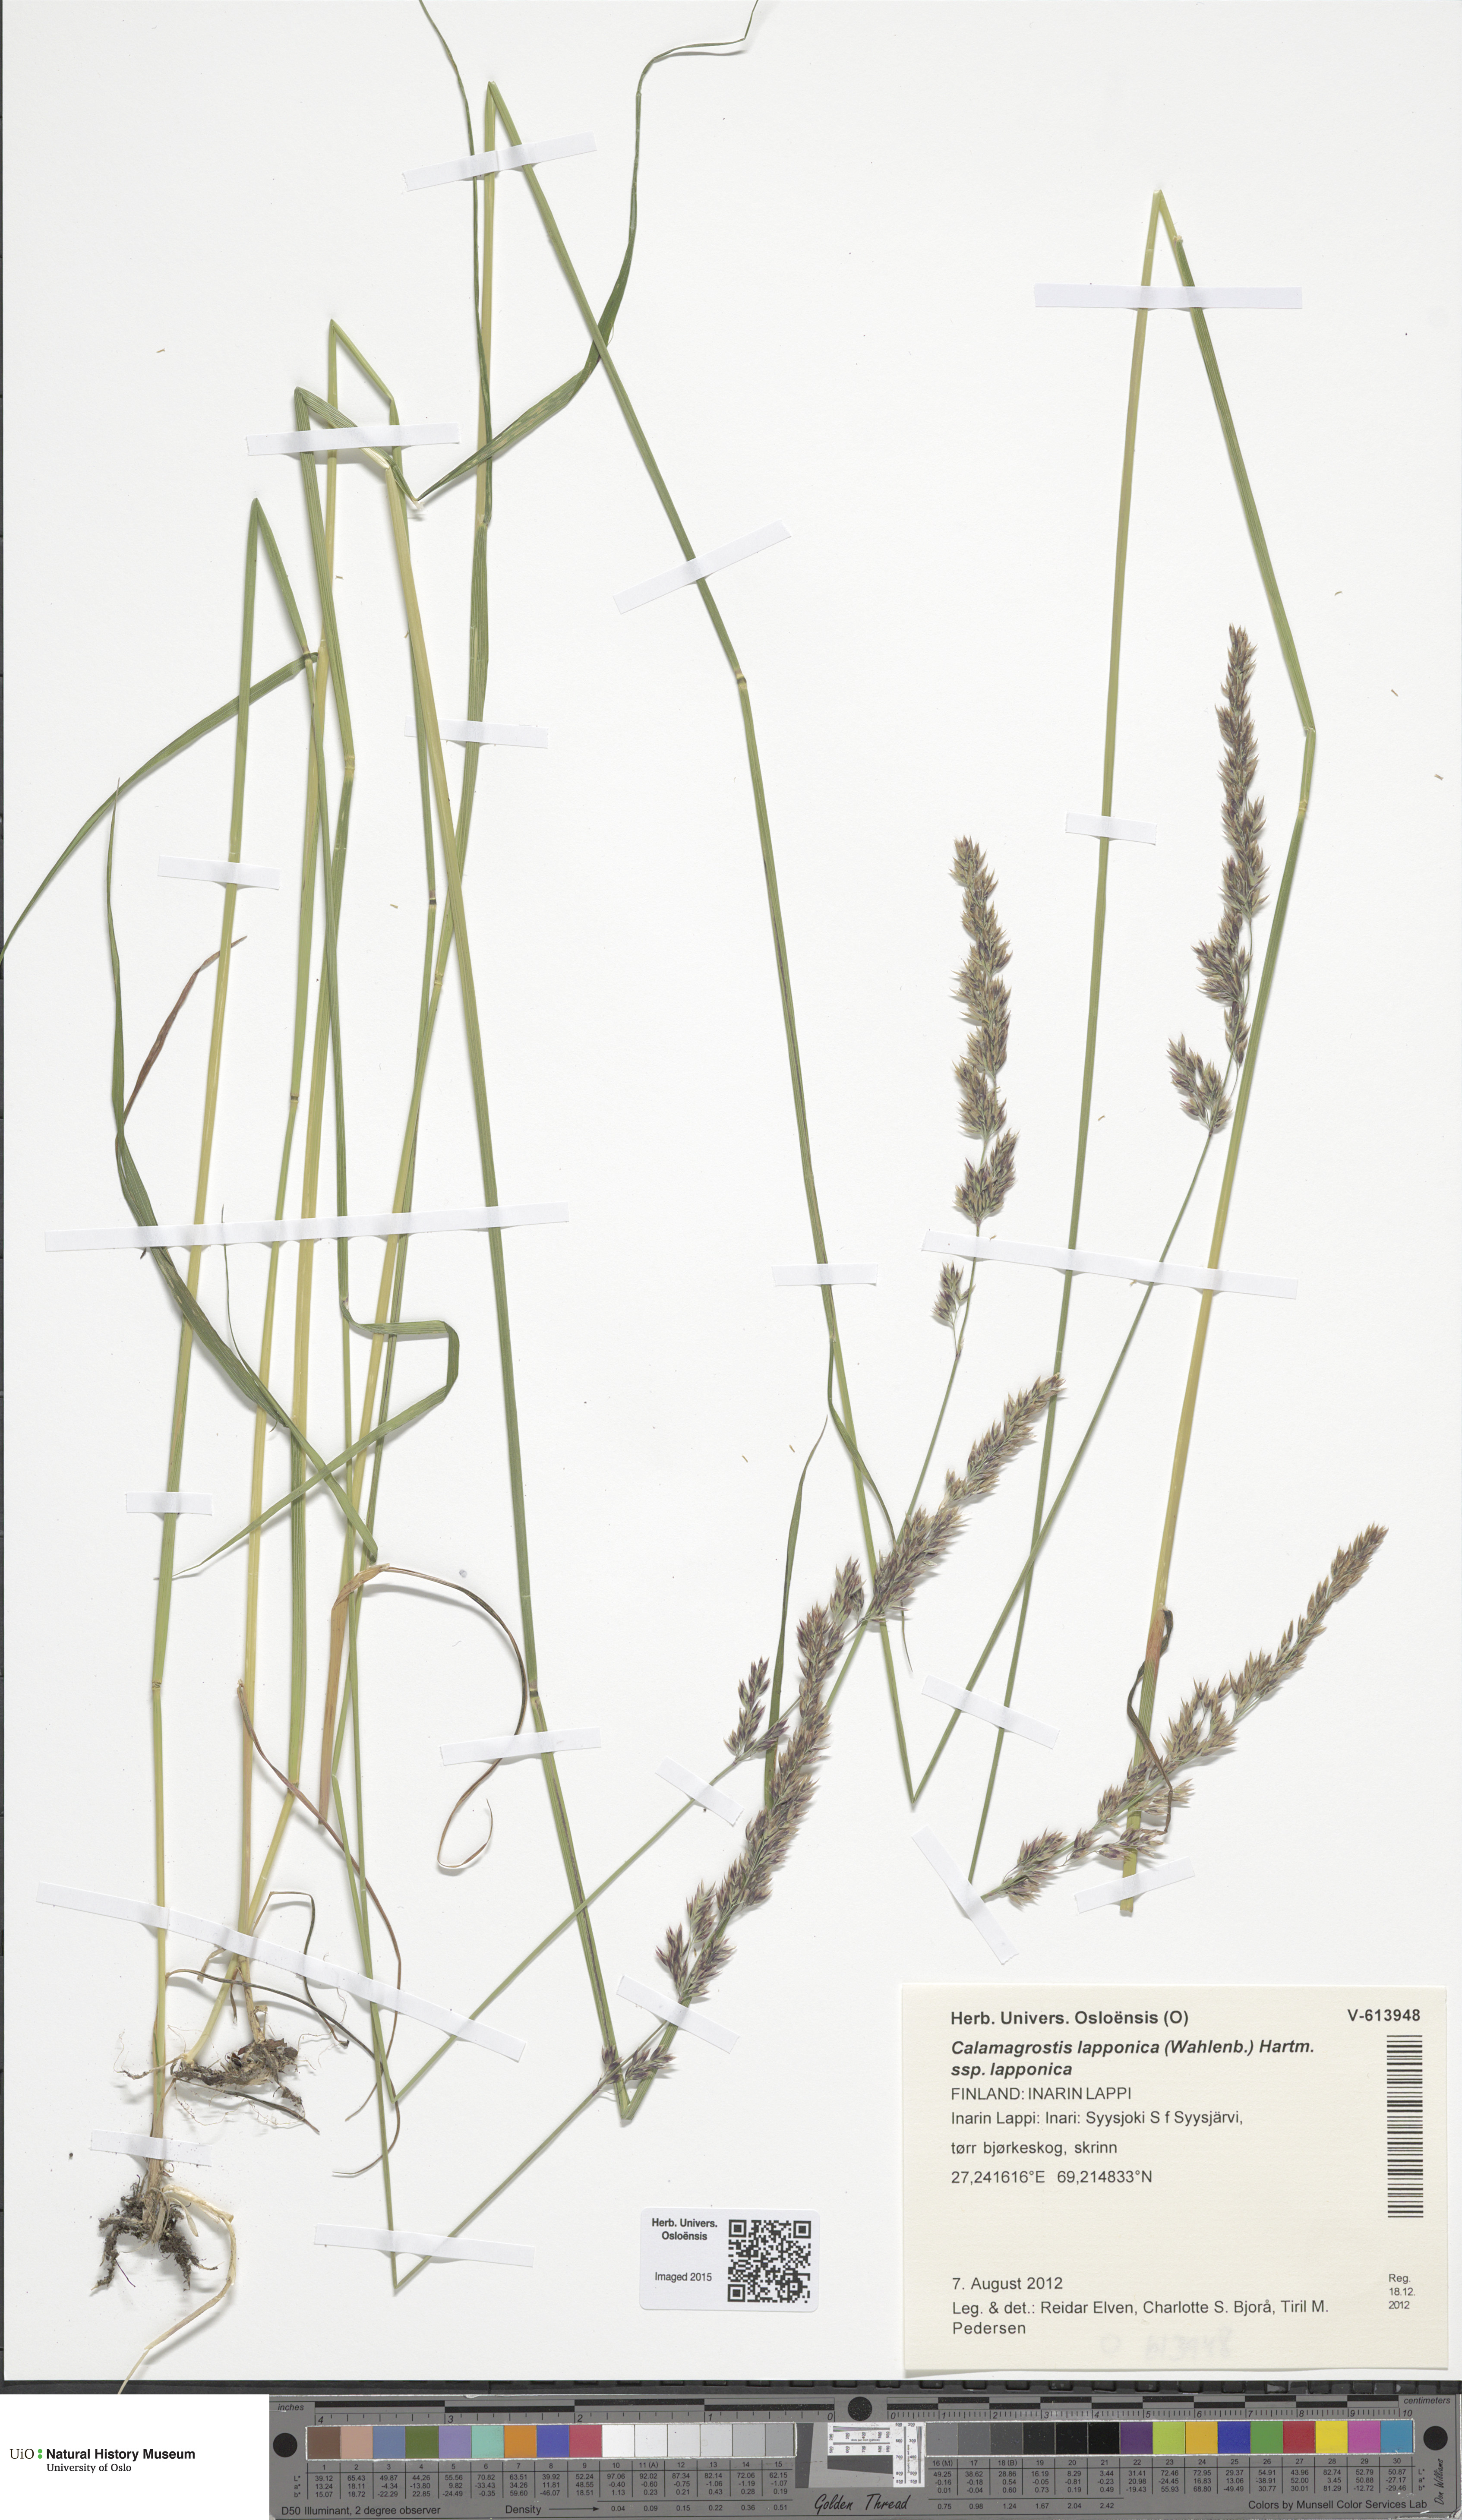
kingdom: Plantae
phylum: Tracheophyta
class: Liliopsida
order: Poales
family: Poaceae
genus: Calamagrostis
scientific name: Calamagrostis lapponica
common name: Lapland reedgrass
